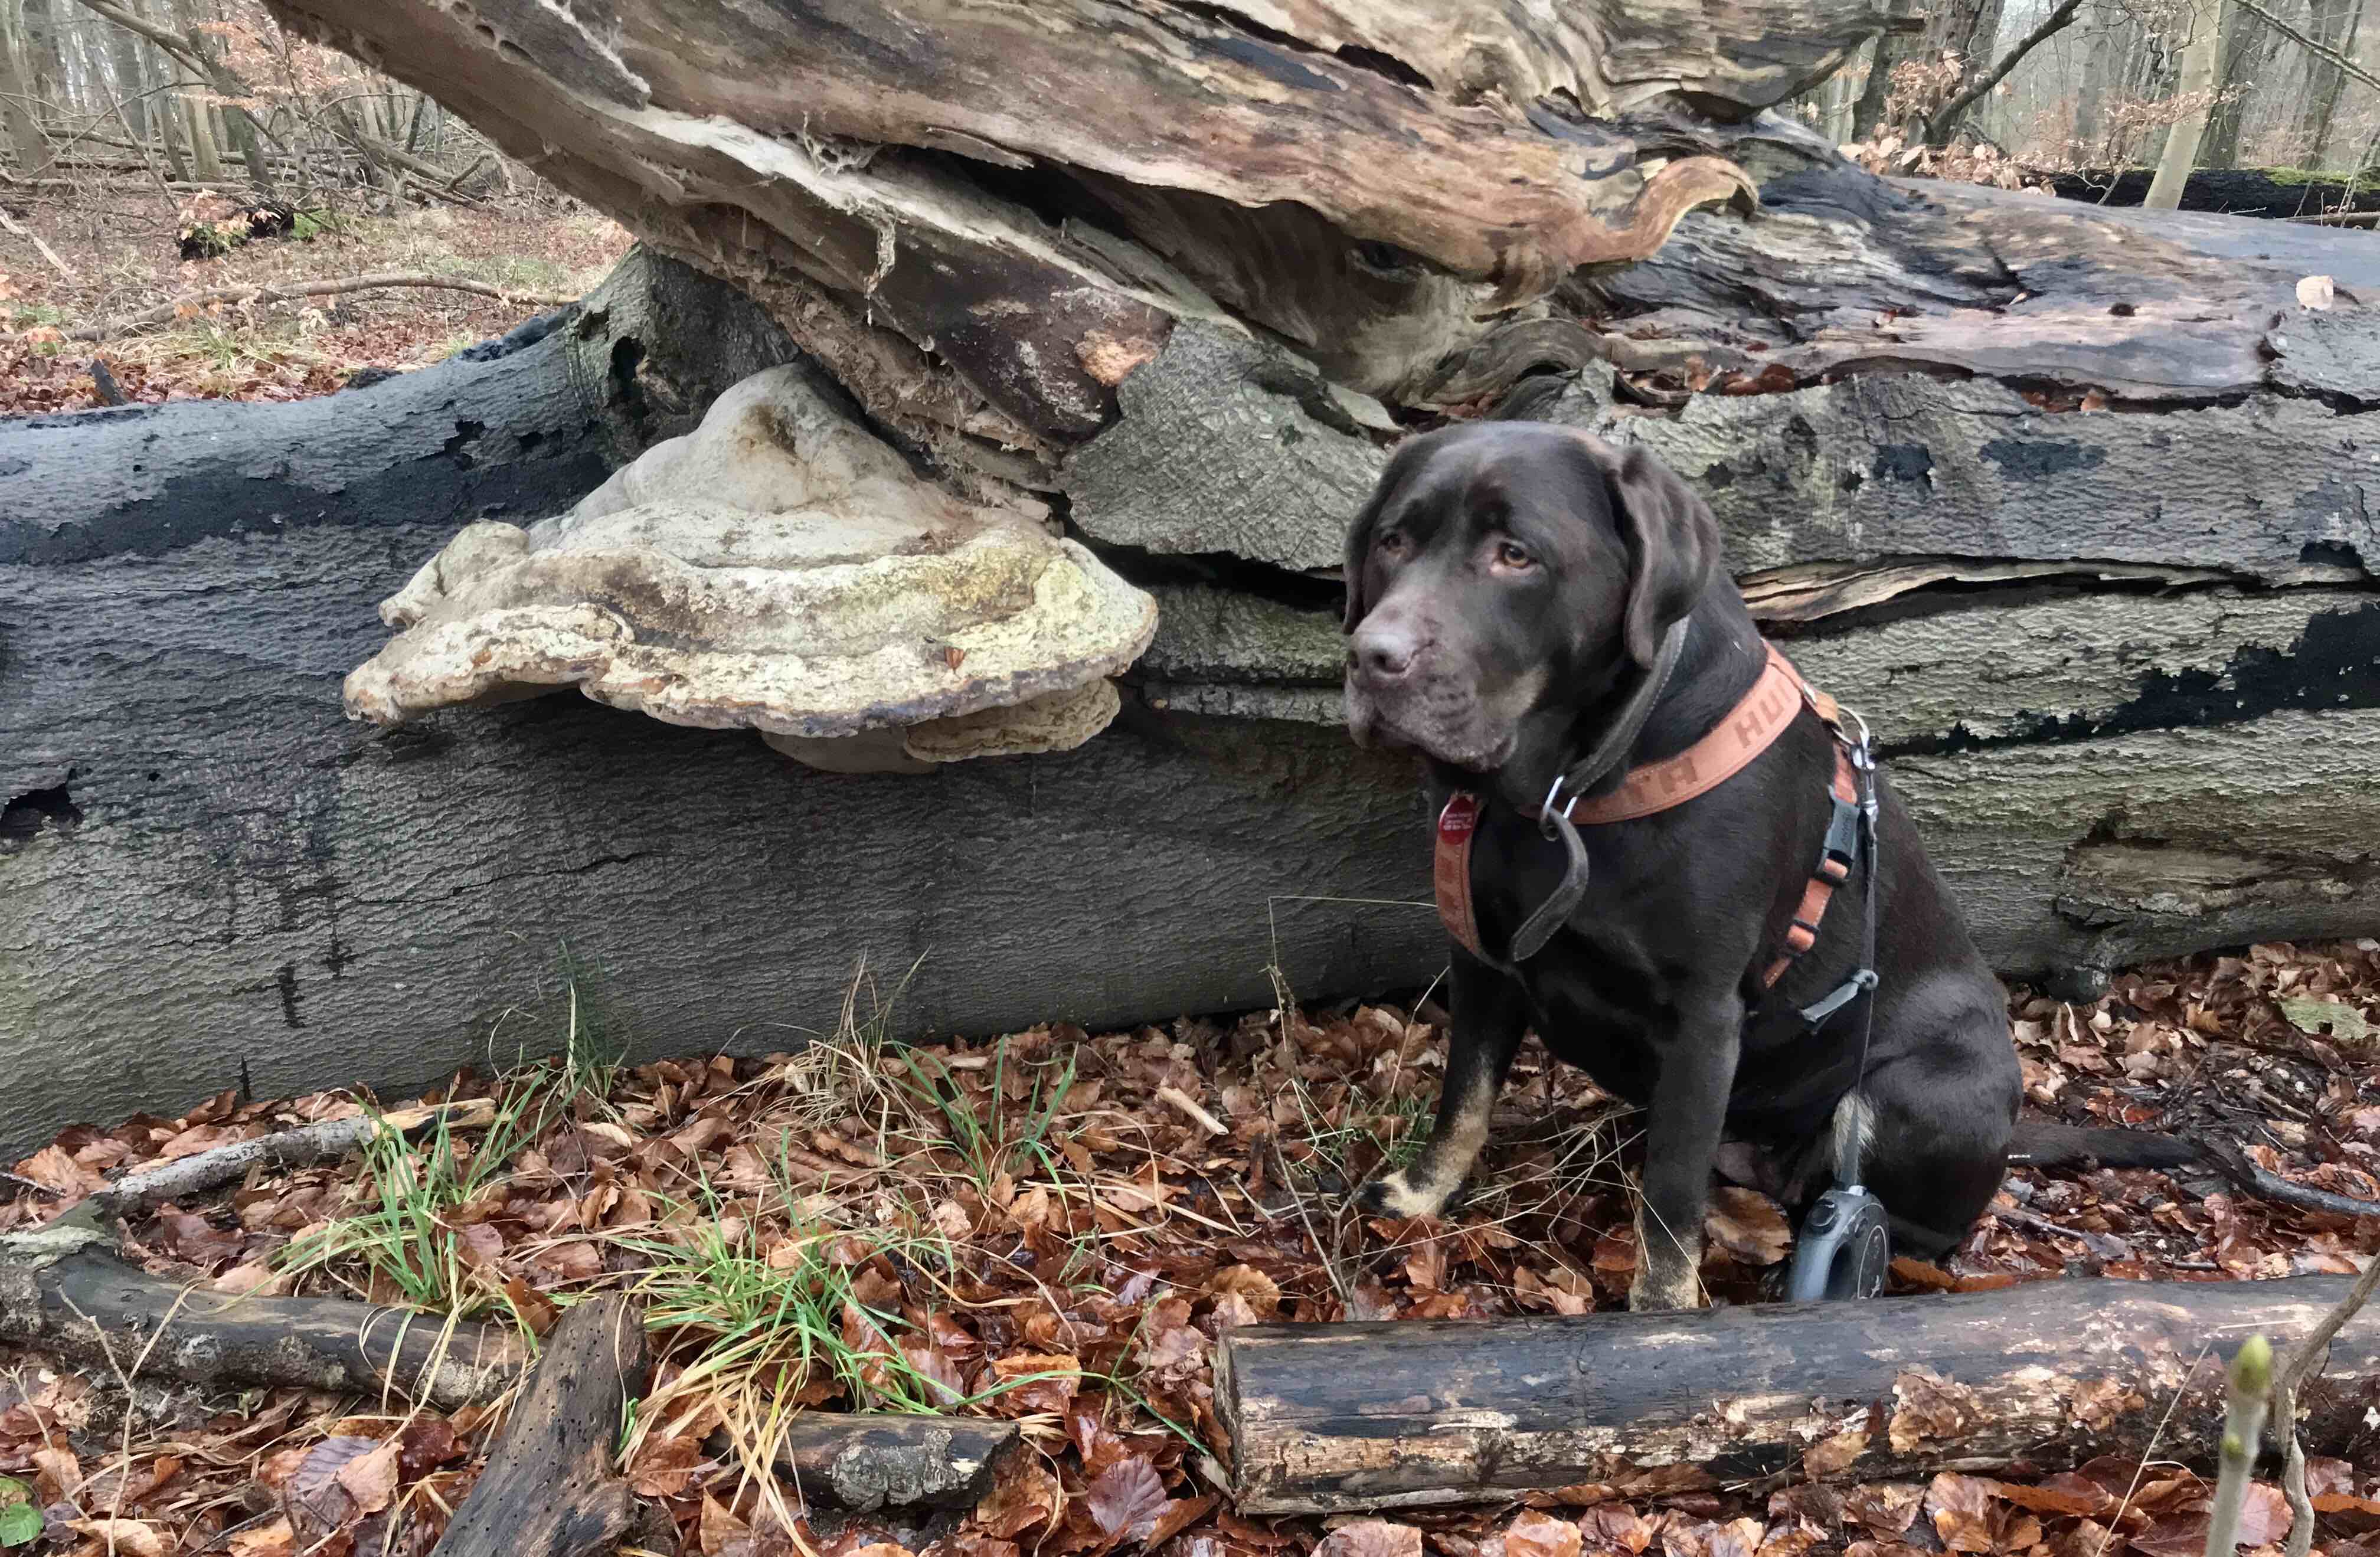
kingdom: Fungi
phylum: Basidiomycota
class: Agaricomycetes
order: Polyporales
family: Polyporaceae
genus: Fomes
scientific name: Fomes fomentarius
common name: tøndersvamp
